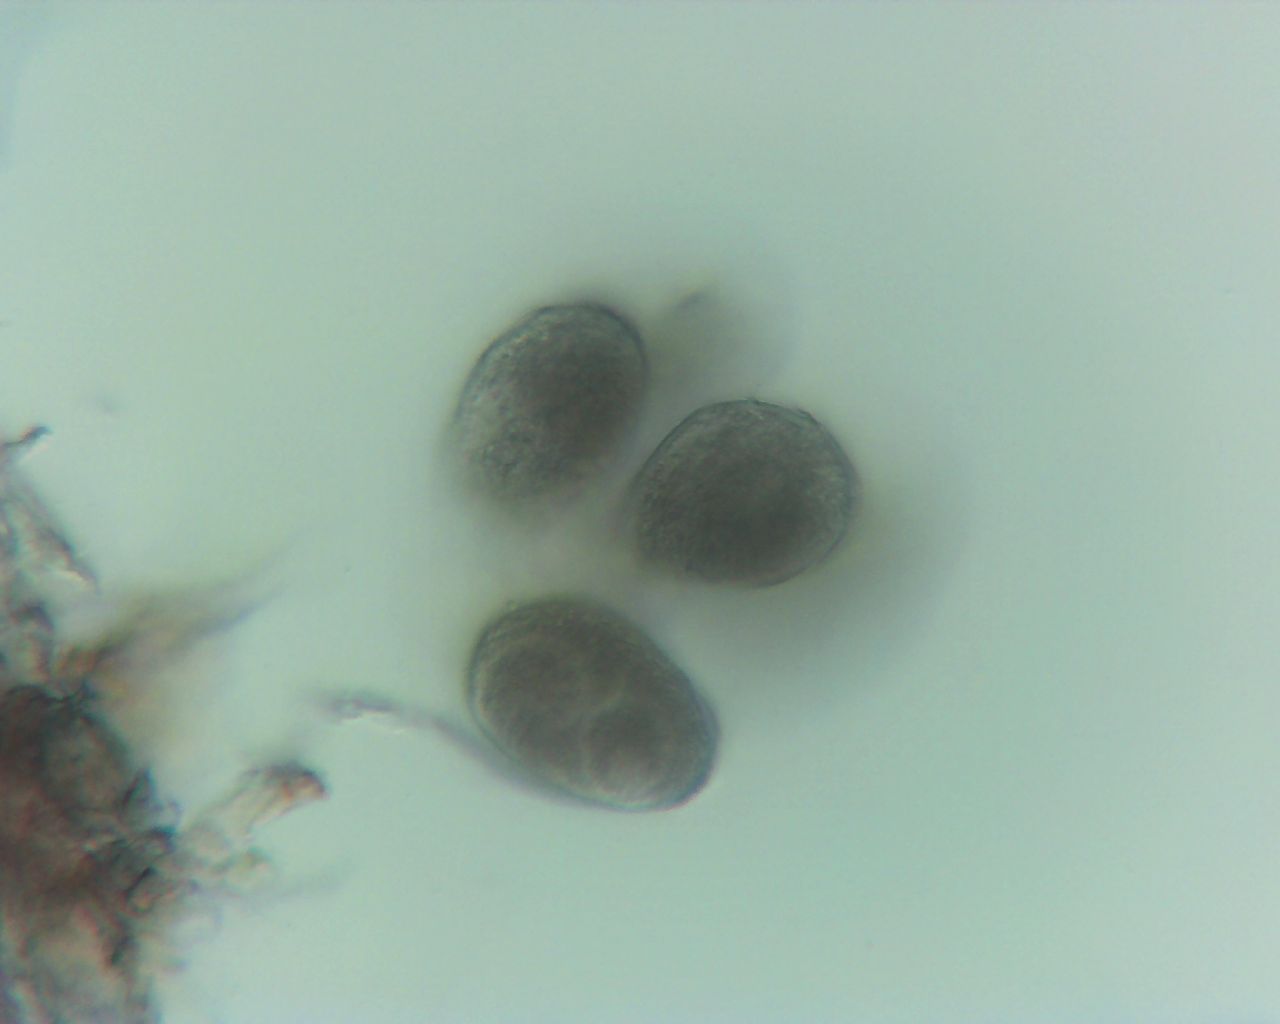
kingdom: Fungi
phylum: Ascomycota
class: Leotiomycetes
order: Helotiales
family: Erysiphaceae
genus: Golovinomyces
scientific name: Golovinomyces sordidus
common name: Plantain mildew
